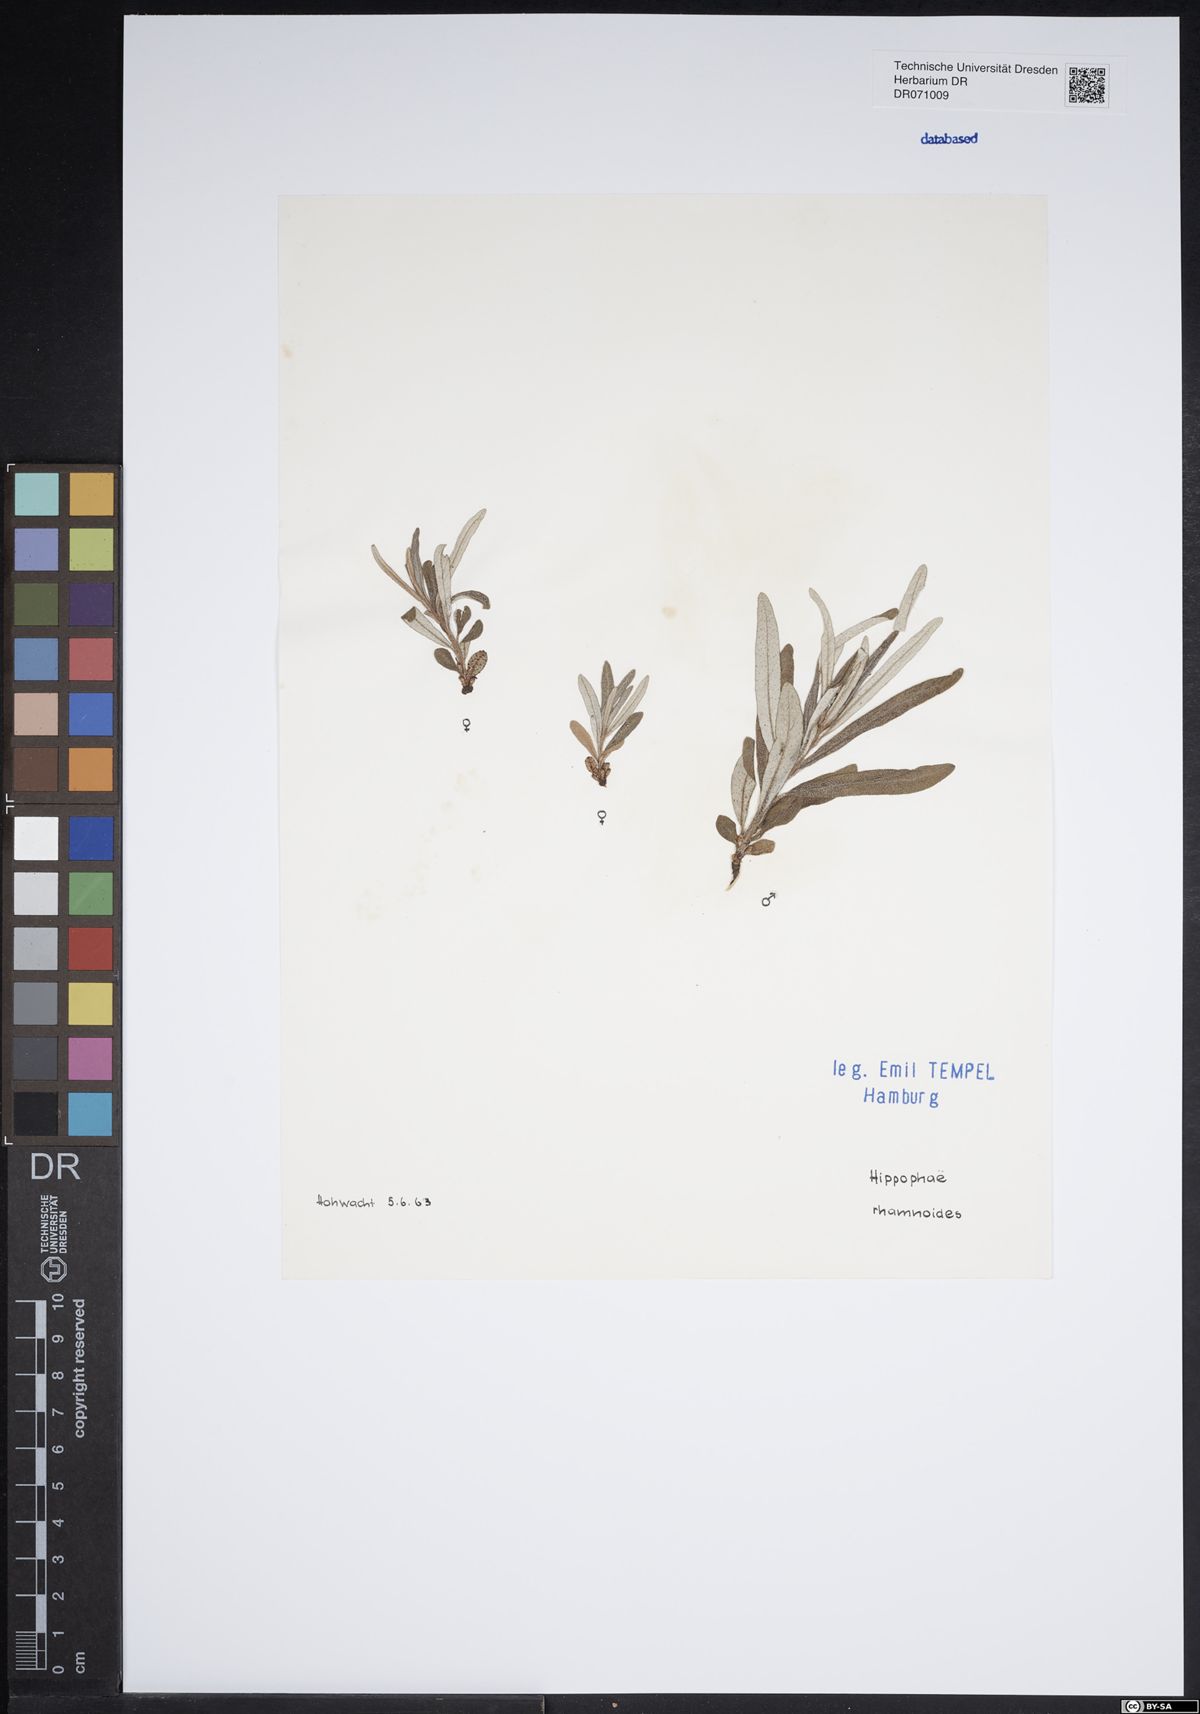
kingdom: Plantae
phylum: Tracheophyta
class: Magnoliopsida
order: Rosales
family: Elaeagnaceae
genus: Hippophae
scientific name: Hippophae rhamnoides
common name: Sea-buckthorn
